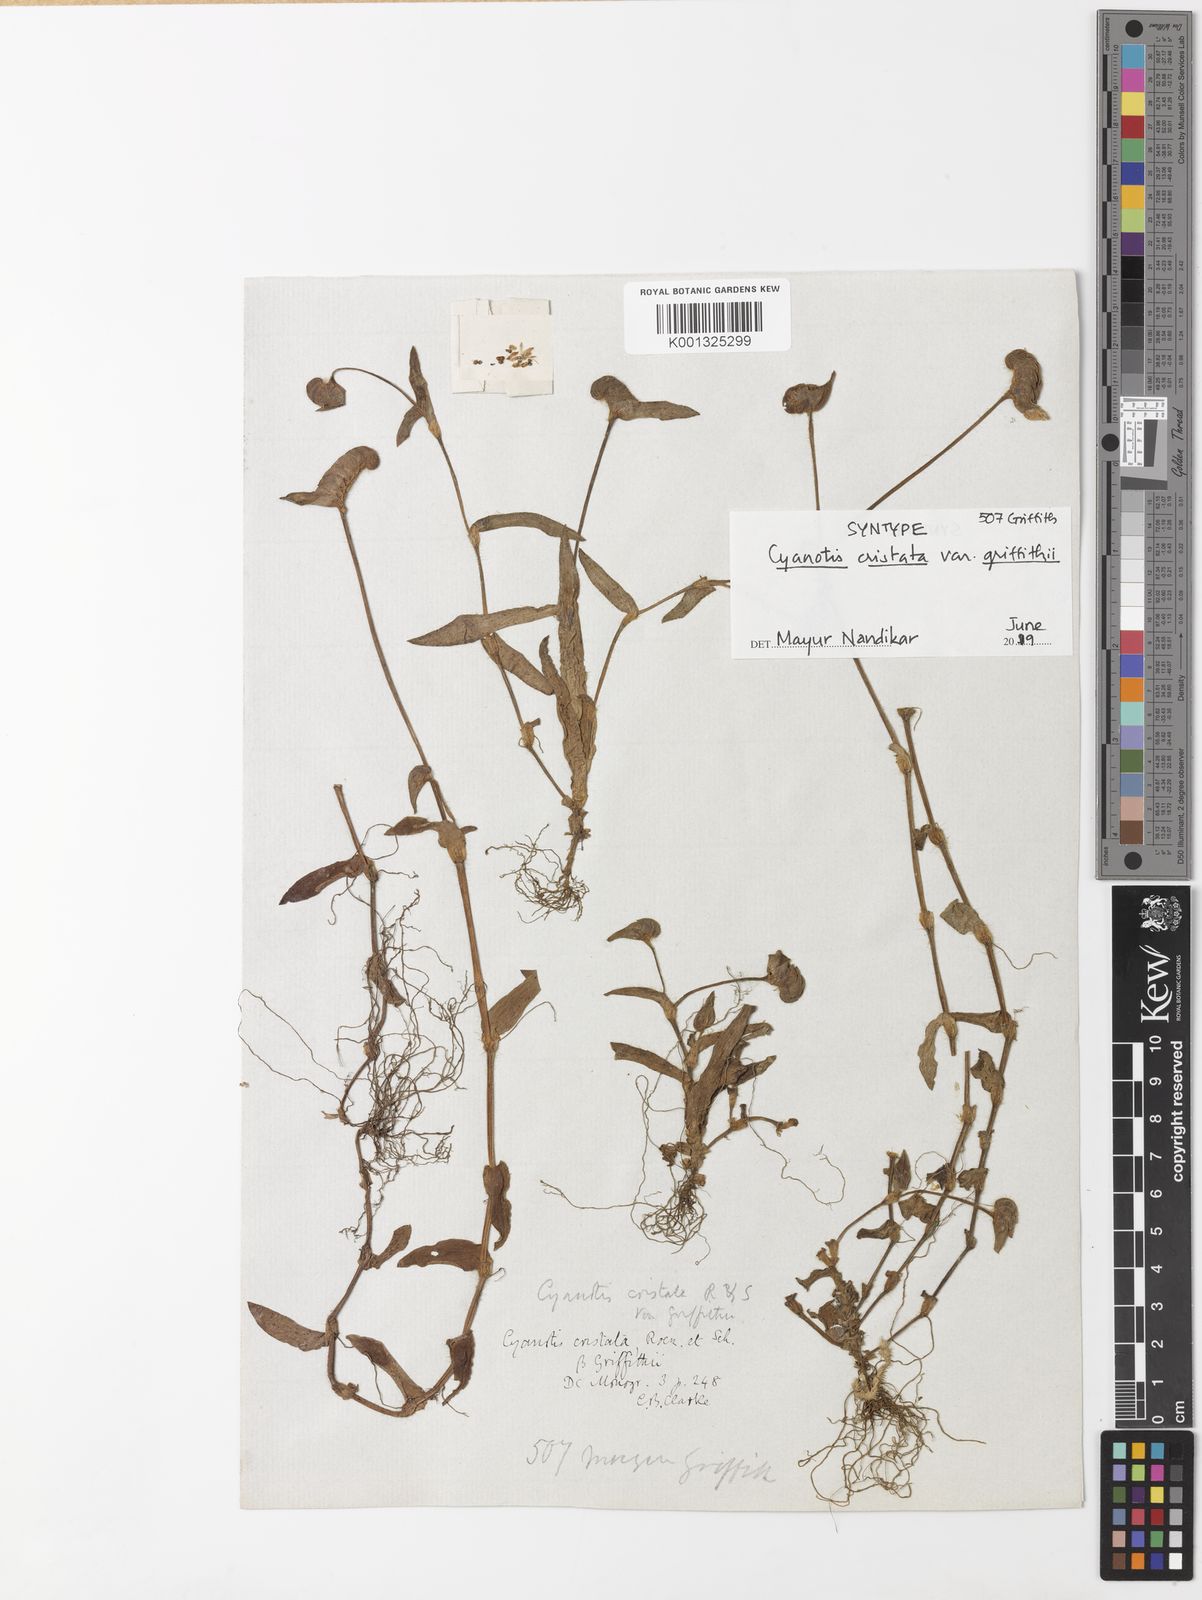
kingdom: Plantae
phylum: Tracheophyta
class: Liliopsida
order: Commelinales
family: Commelinaceae
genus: Cyanotis
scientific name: Cyanotis cristata
